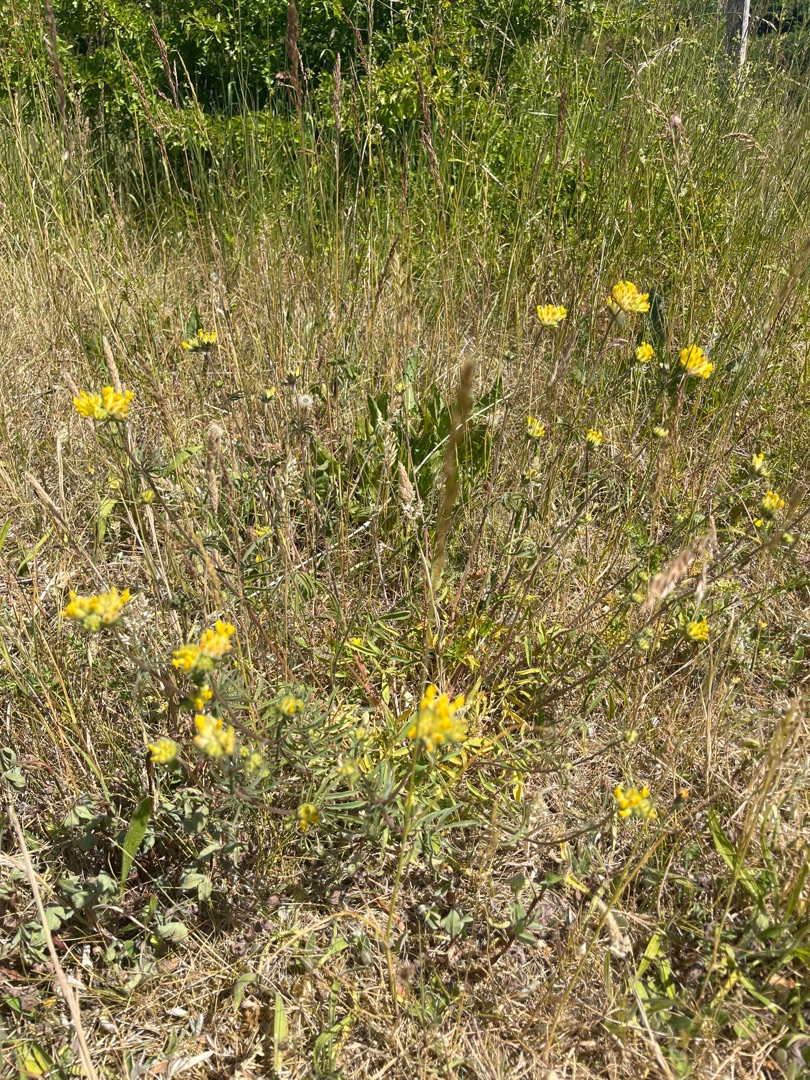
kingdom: Plantae
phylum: Tracheophyta
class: Magnoliopsida
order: Fabales
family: Fabaceae
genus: Anthyllis
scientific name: Anthyllis vulneraria
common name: Rundbælg
